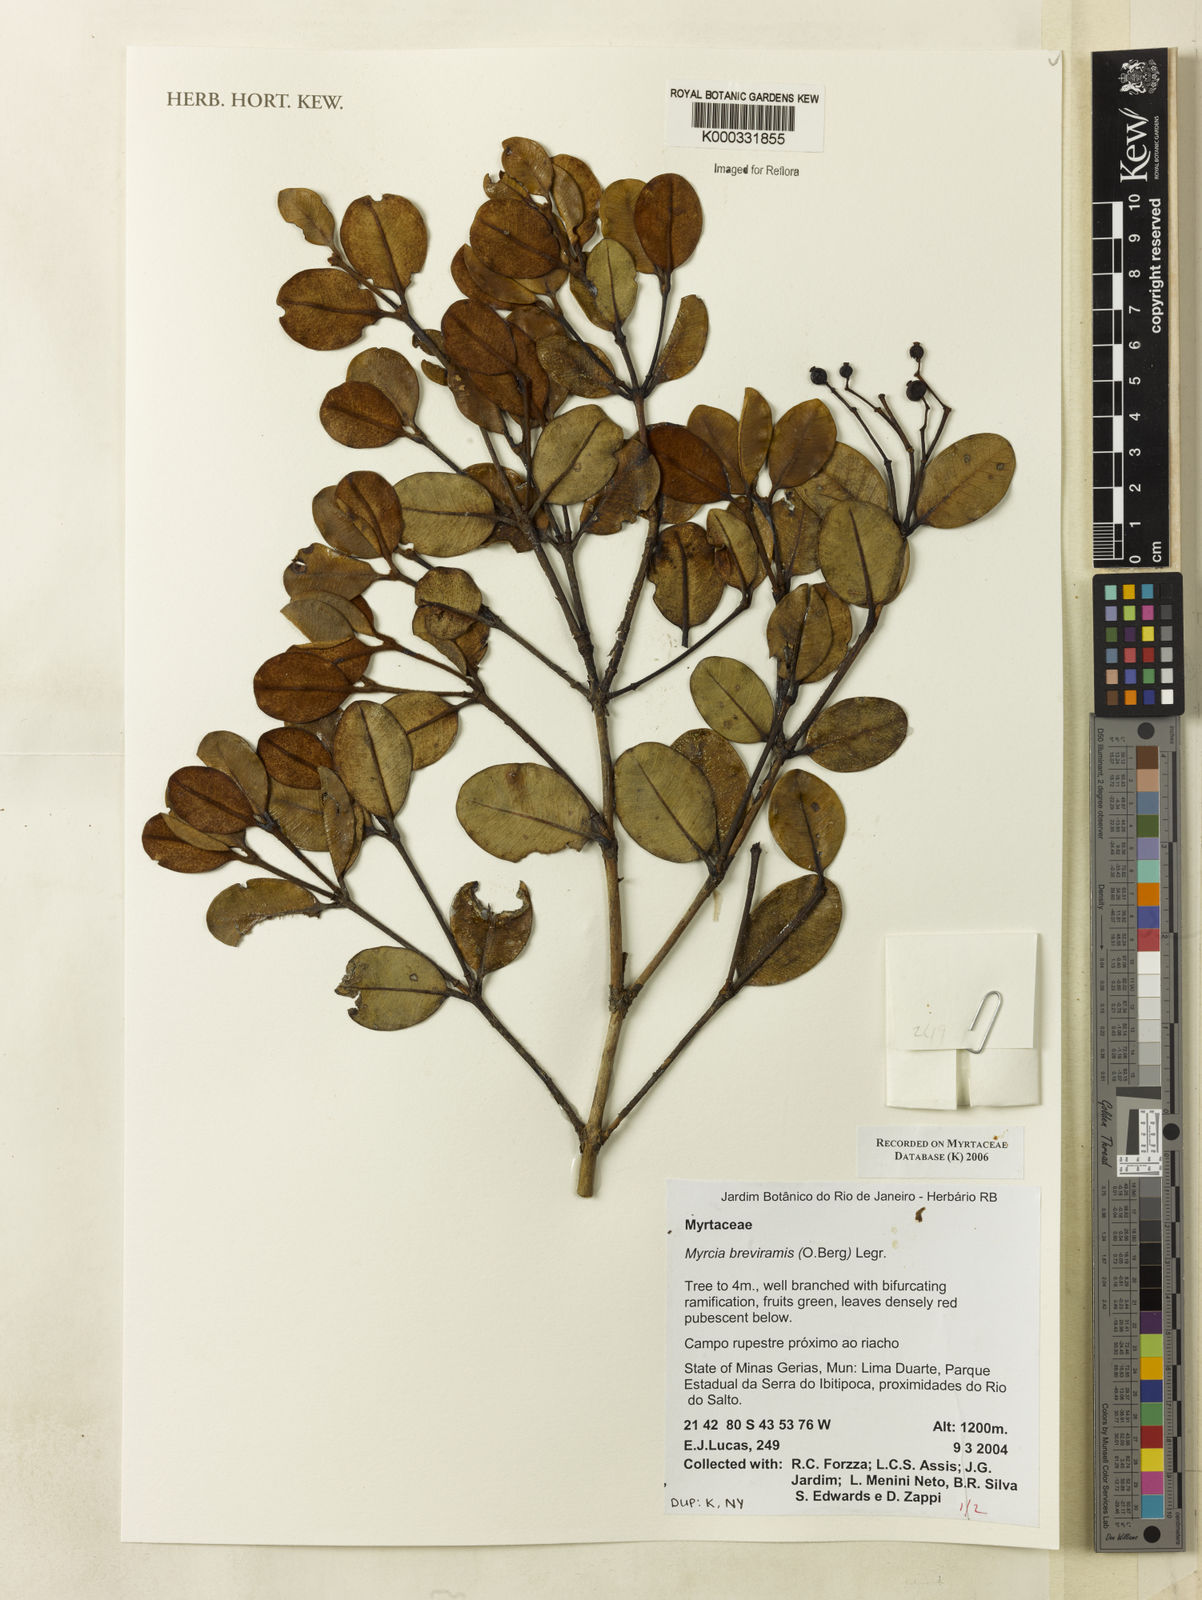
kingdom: Plantae
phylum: Tracheophyta
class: Magnoliopsida
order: Myrtales
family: Myrtaceae
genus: Myrcia
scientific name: Myrcia pulchra
